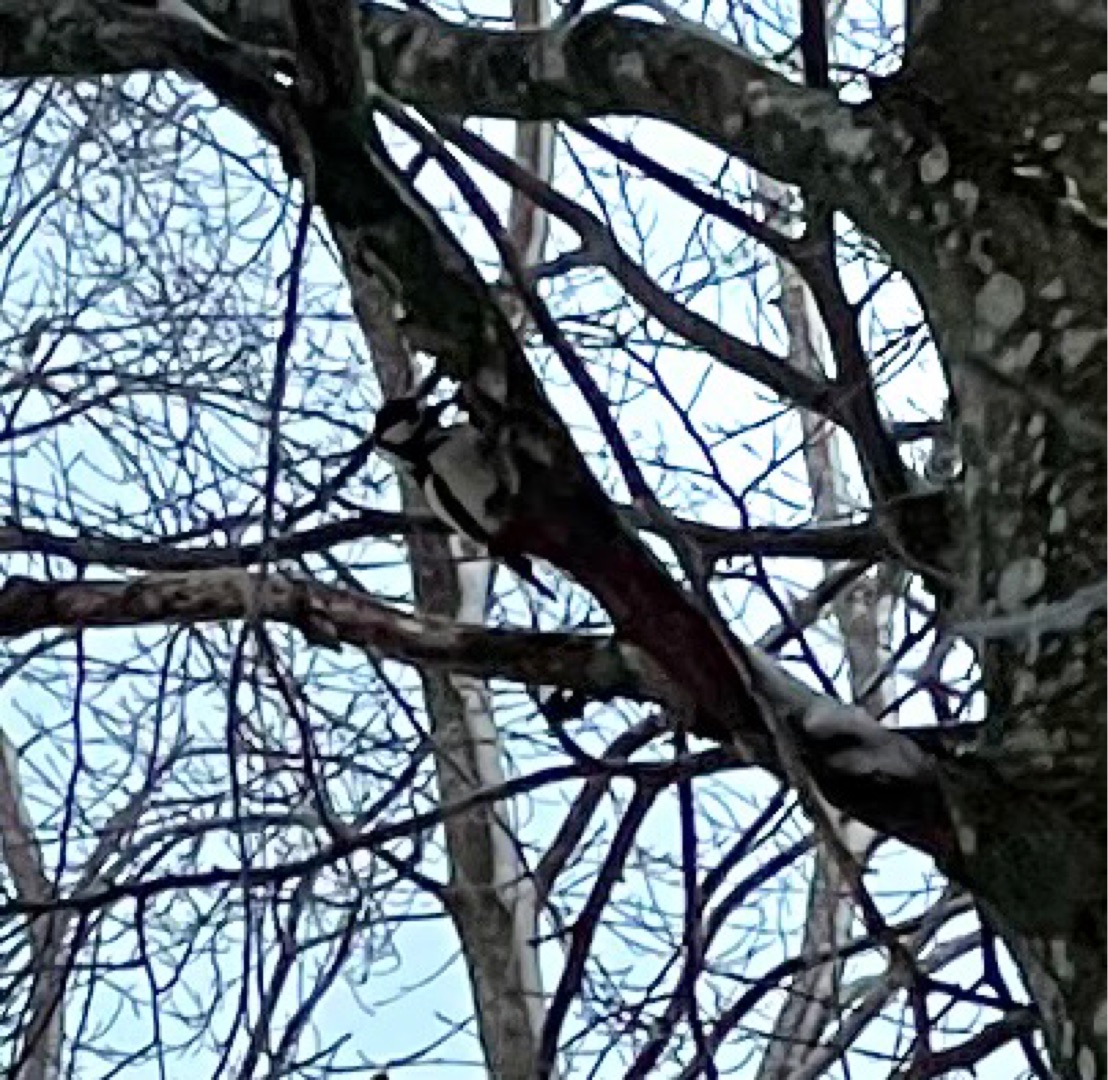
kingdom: Animalia
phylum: Chordata
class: Aves
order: Piciformes
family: Picidae
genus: Dendrocopos
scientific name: Dendrocopos major
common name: Stor flagspætte
